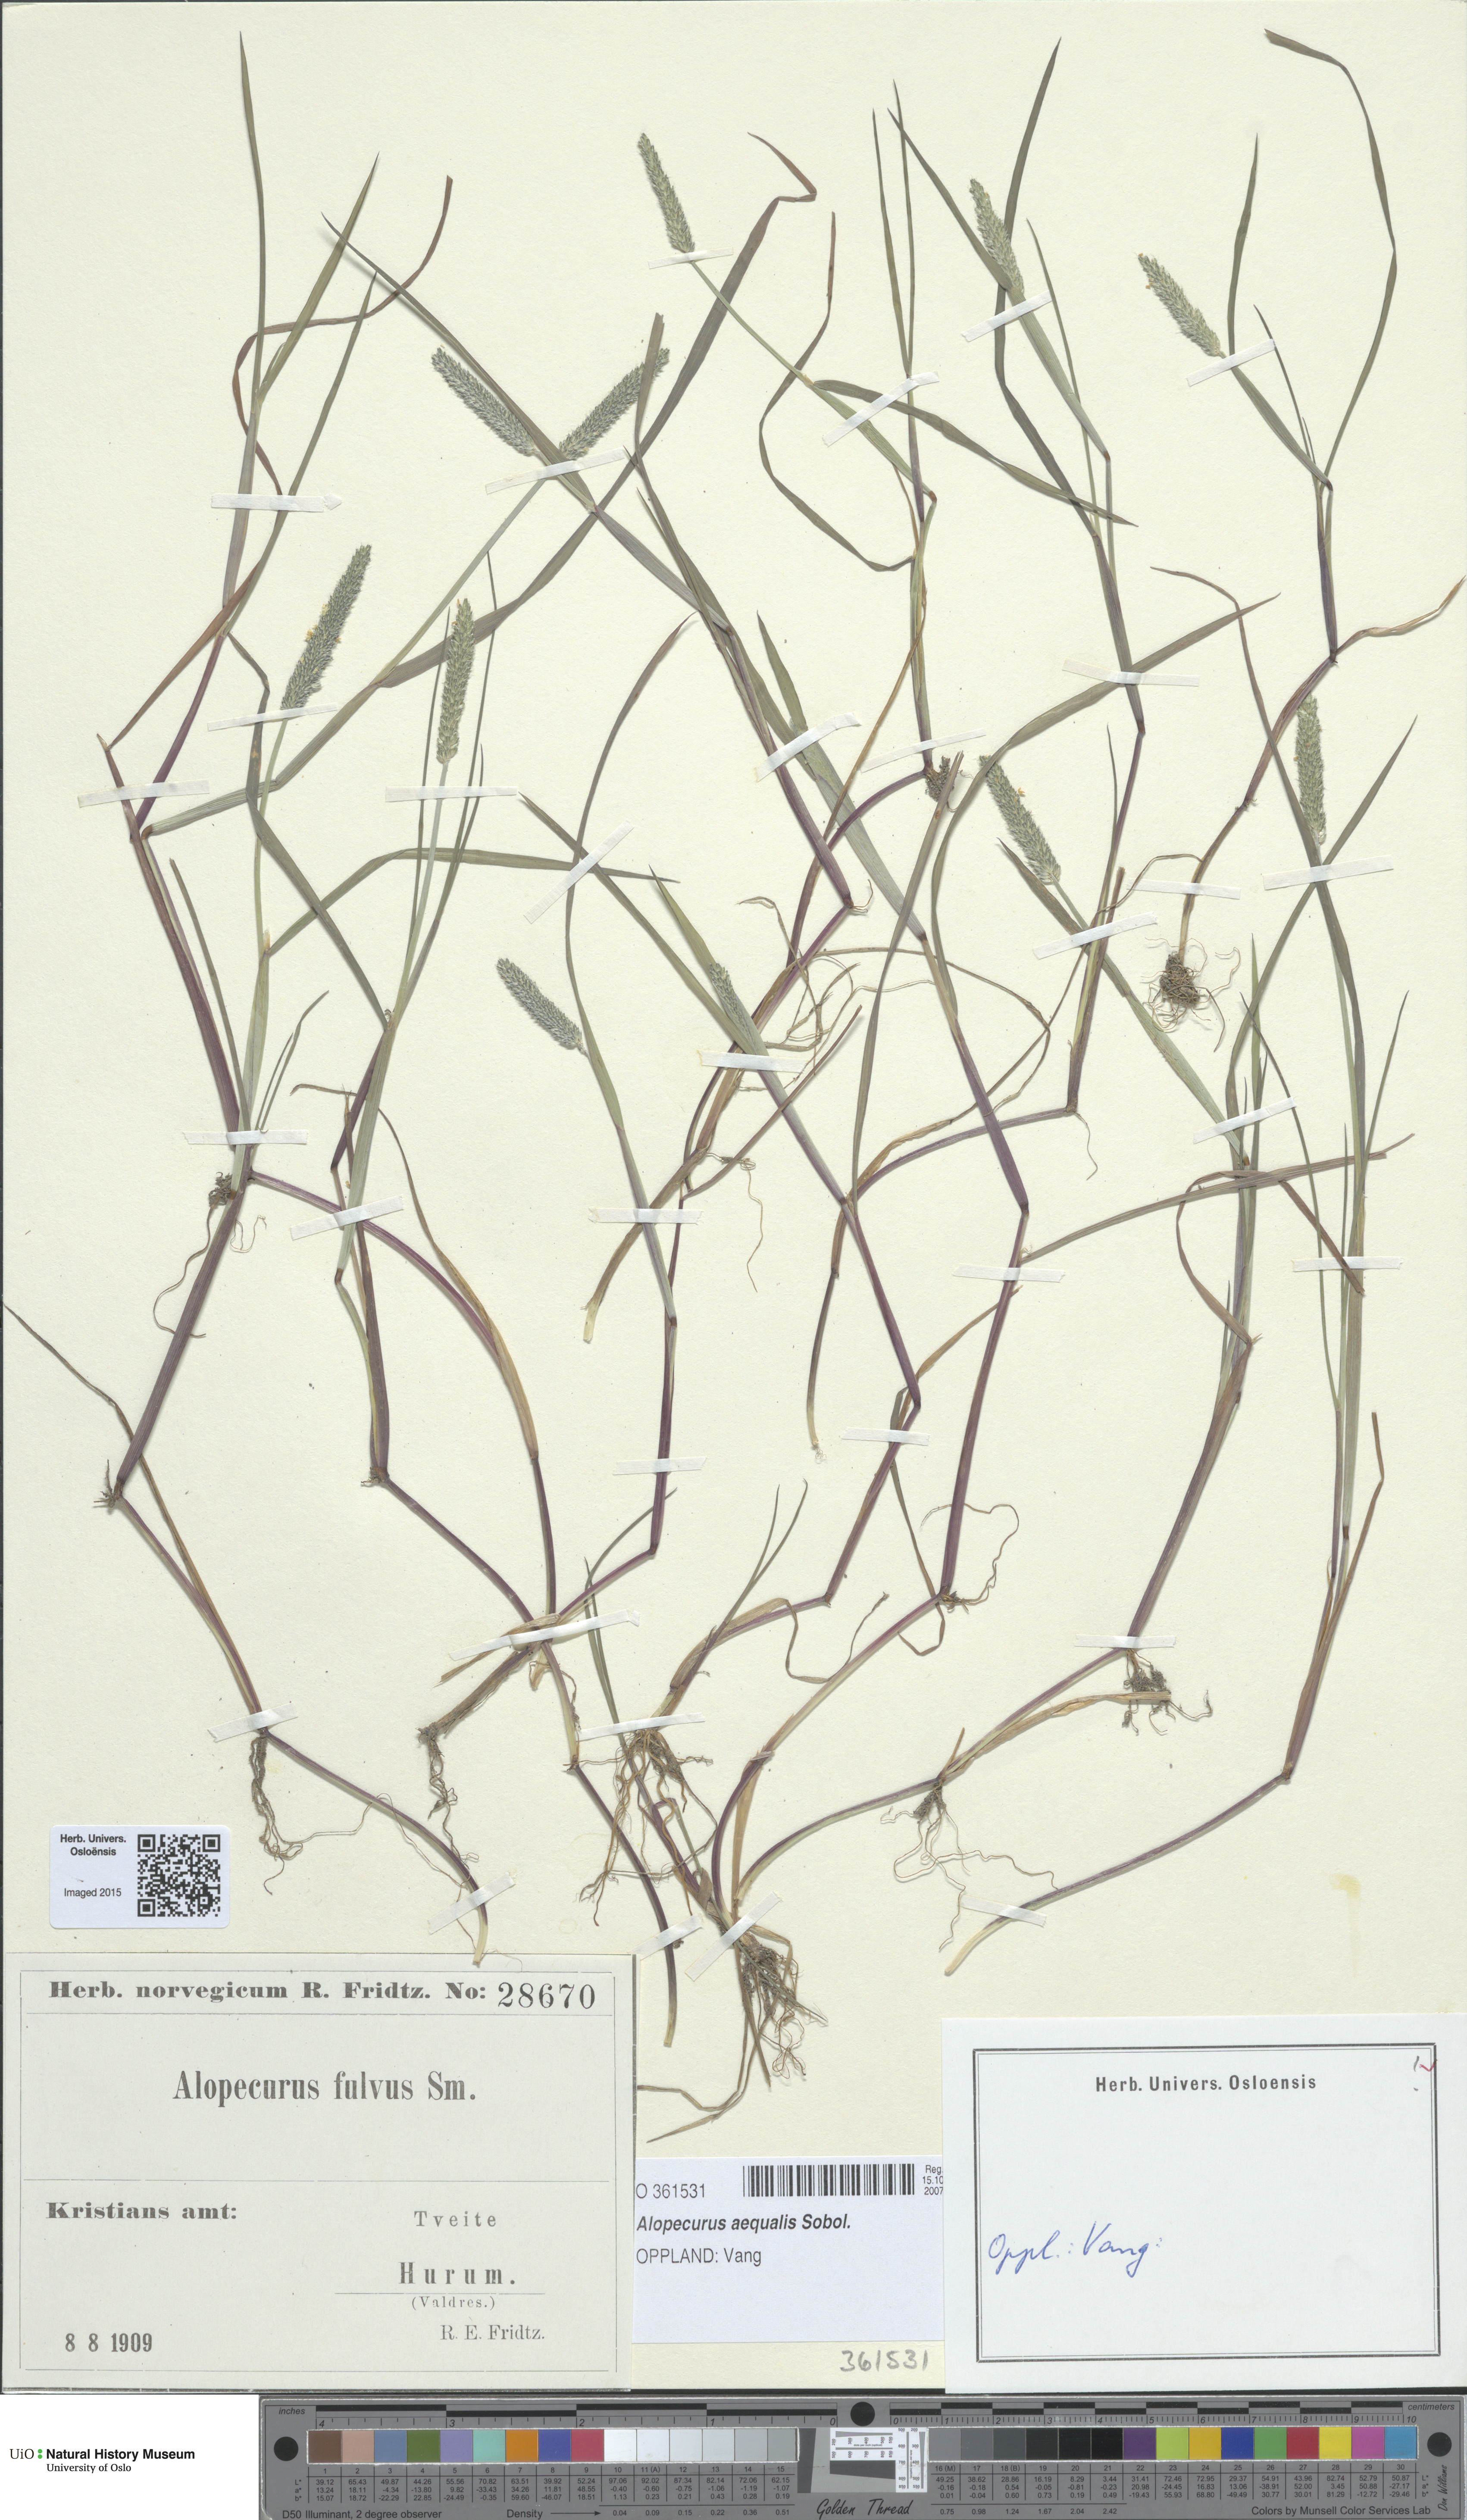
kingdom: Plantae
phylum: Tracheophyta
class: Liliopsida
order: Poales
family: Poaceae
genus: Alopecurus
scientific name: Alopecurus aequalis
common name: Orange foxtail
